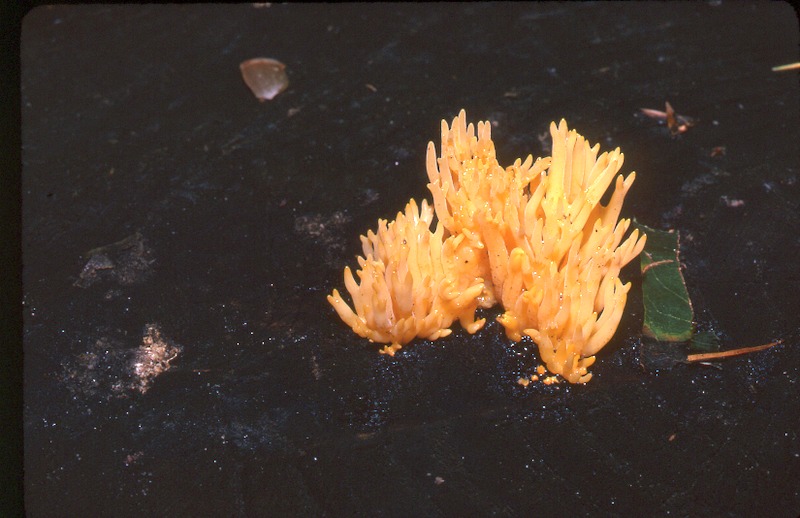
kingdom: Fungi
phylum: Basidiomycota
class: Dacrymycetes
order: Dacrymycetales
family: Dacrymycetaceae
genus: Calocera
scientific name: Calocera viscosa
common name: Yellow stagshorn
